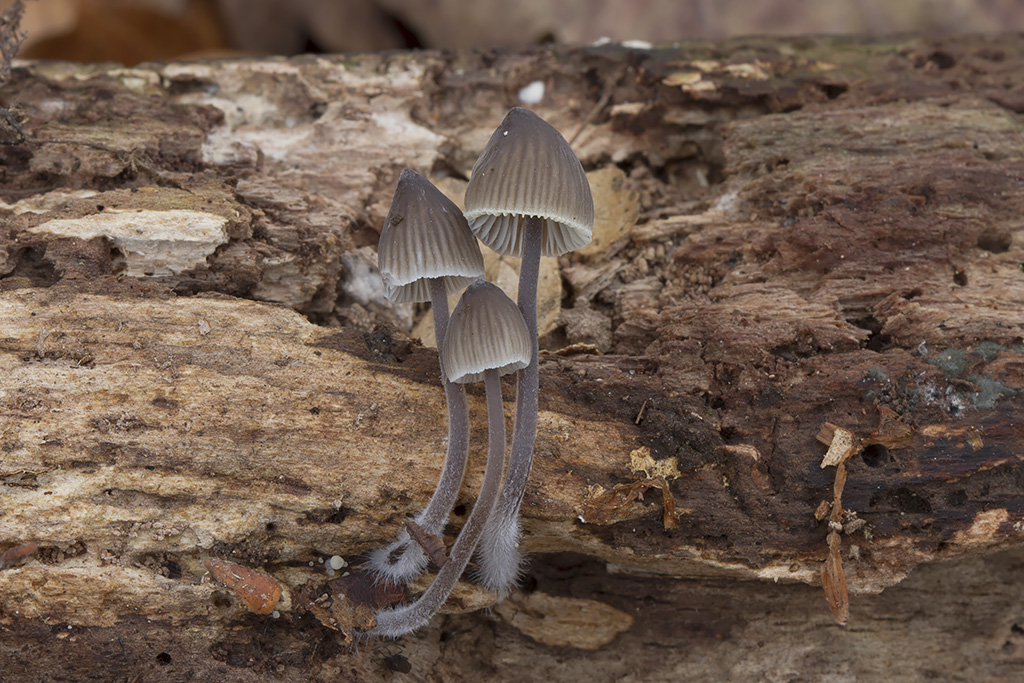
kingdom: Fungi
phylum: Basidiomycota
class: Agaricomycetes
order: Agaricales
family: Mycenaceae
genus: Mycena
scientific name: Mycena leptocephala
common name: klor-huesvamp
